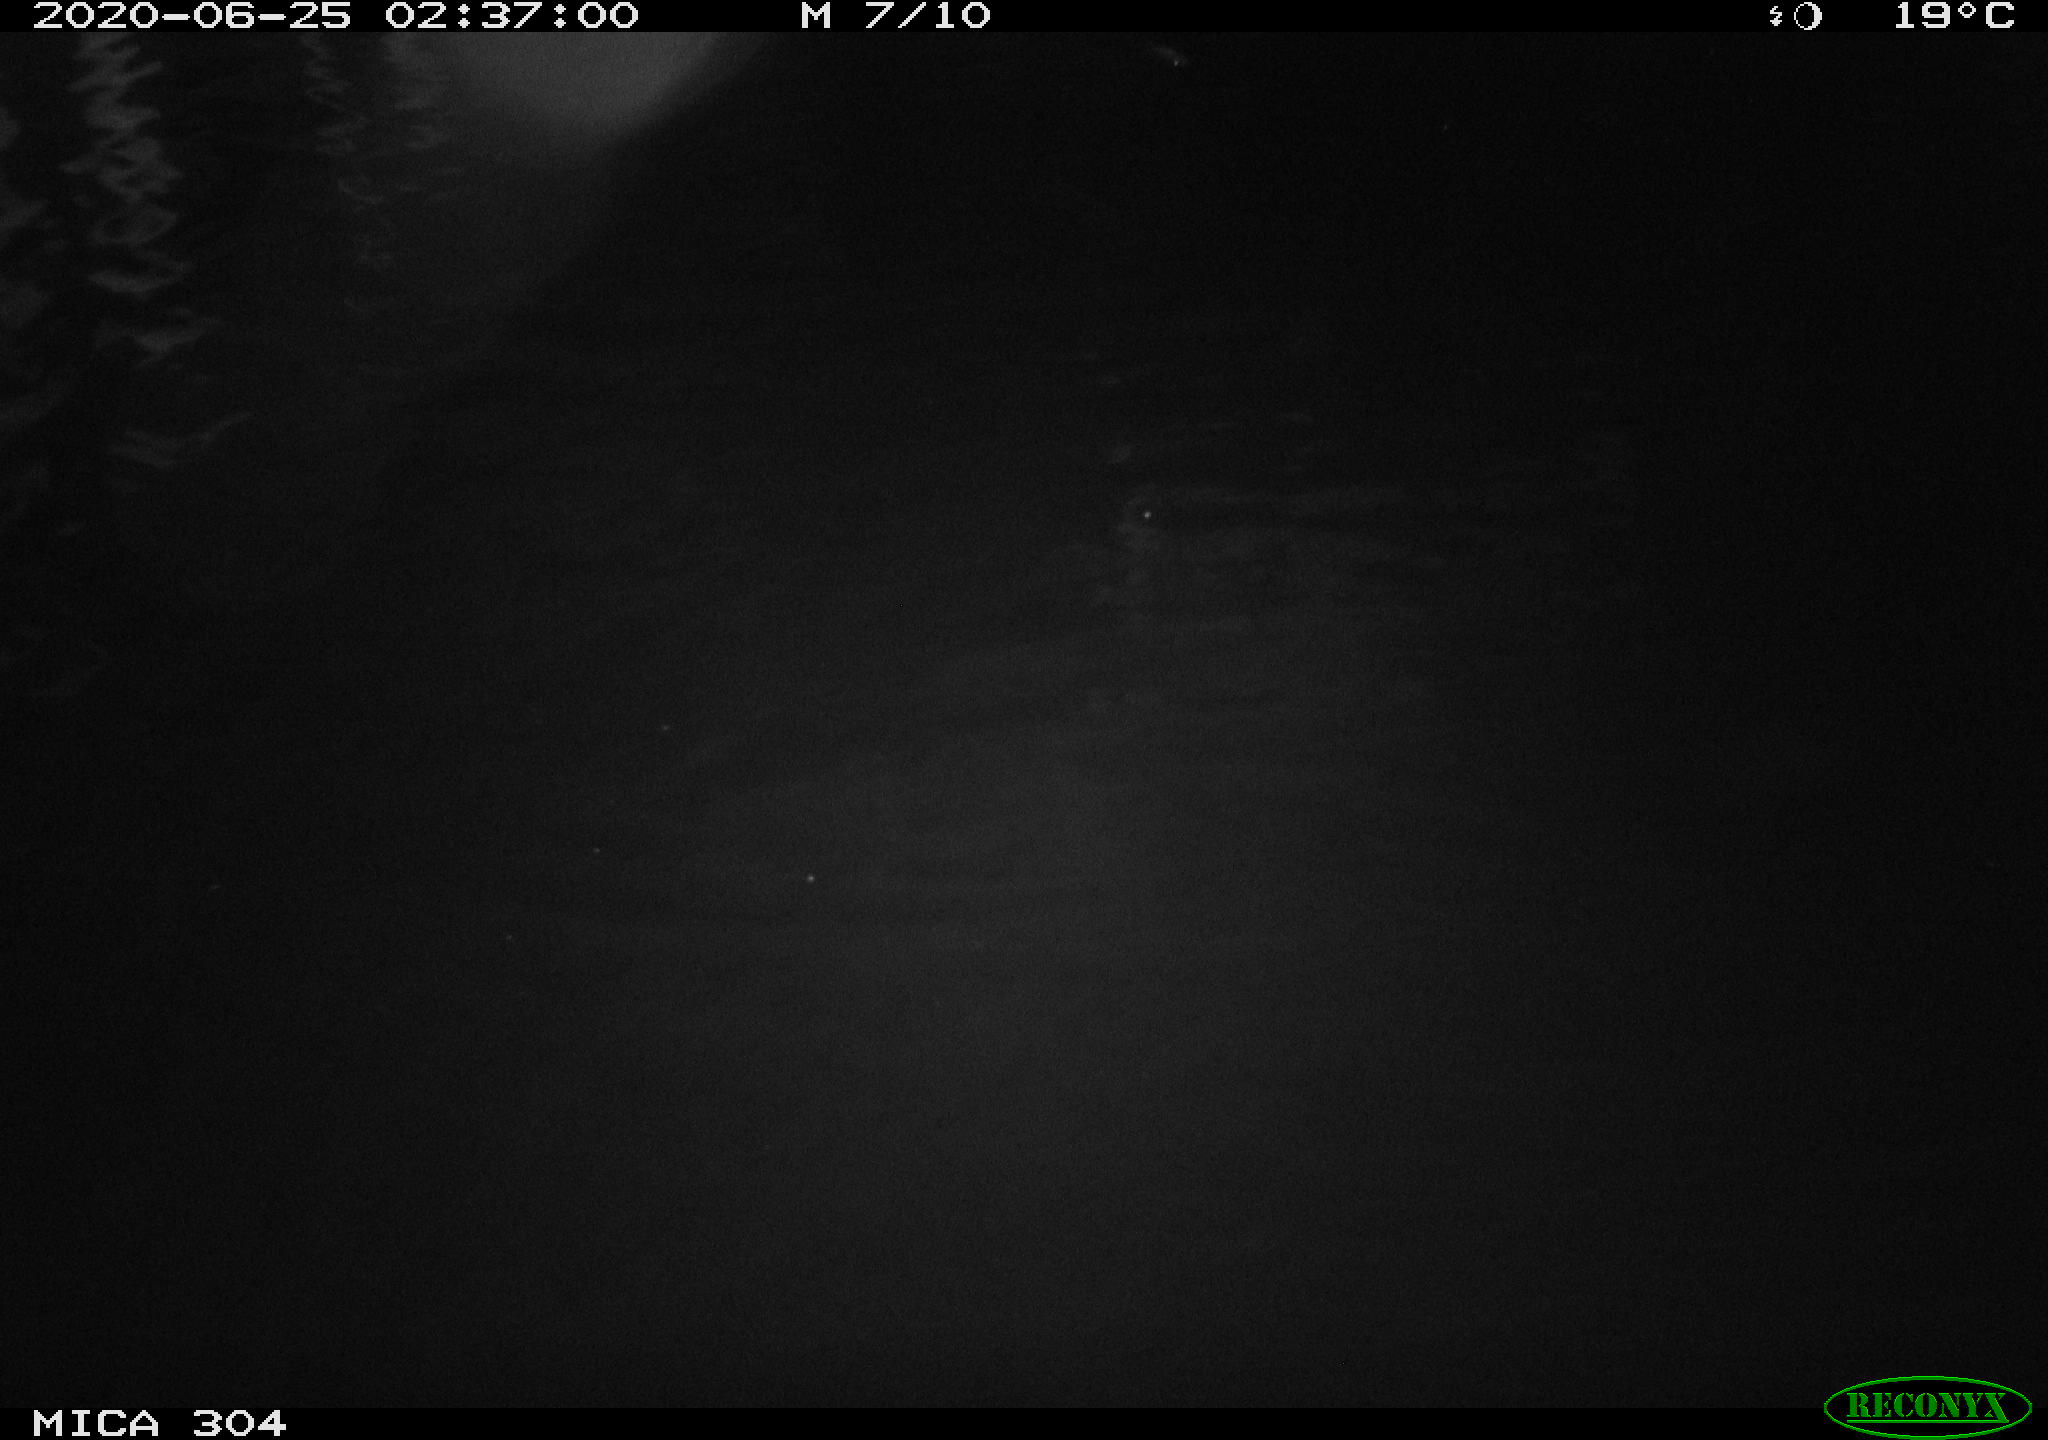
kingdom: Animalia
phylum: Chordata
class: Mammalia
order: Rodentia
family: Cricetidae
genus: Ondatra
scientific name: Ondatra zibethicus
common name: Muskrat
